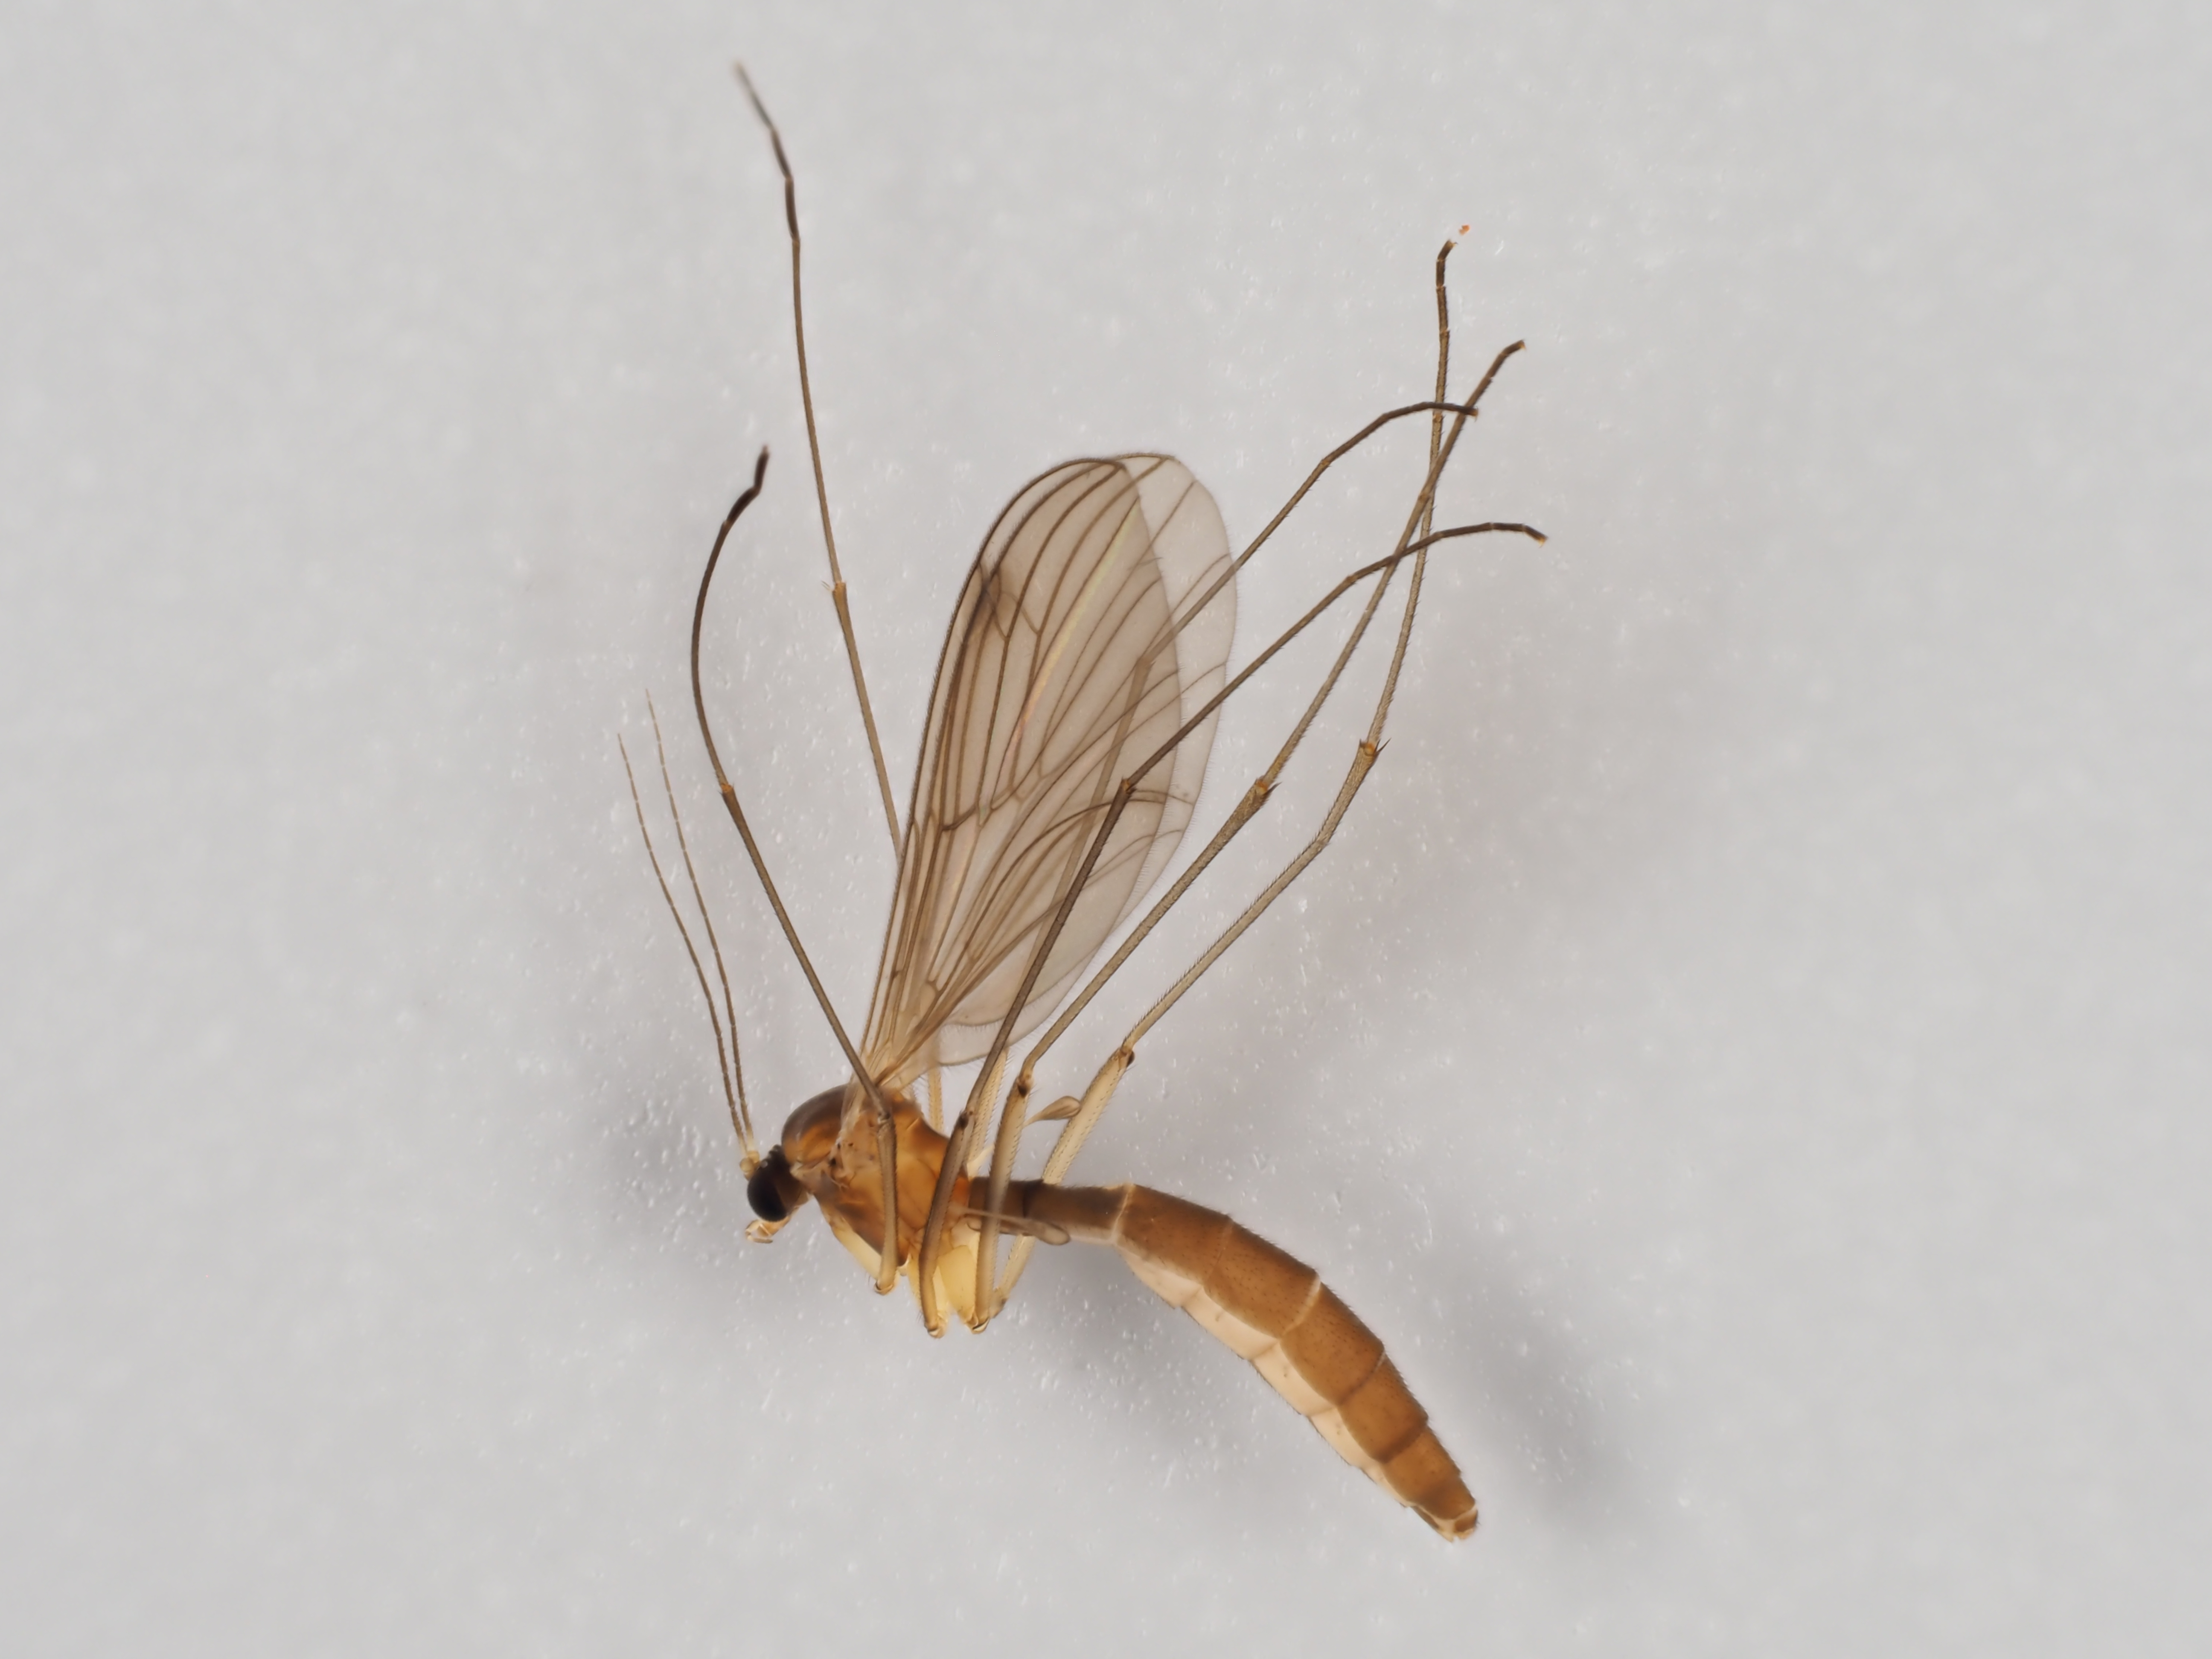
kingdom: Animalia
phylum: Arthropoda
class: Insecta
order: Diptera
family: Bolitophilidae
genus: Bolitophila
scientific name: Bolitophila cinerea
